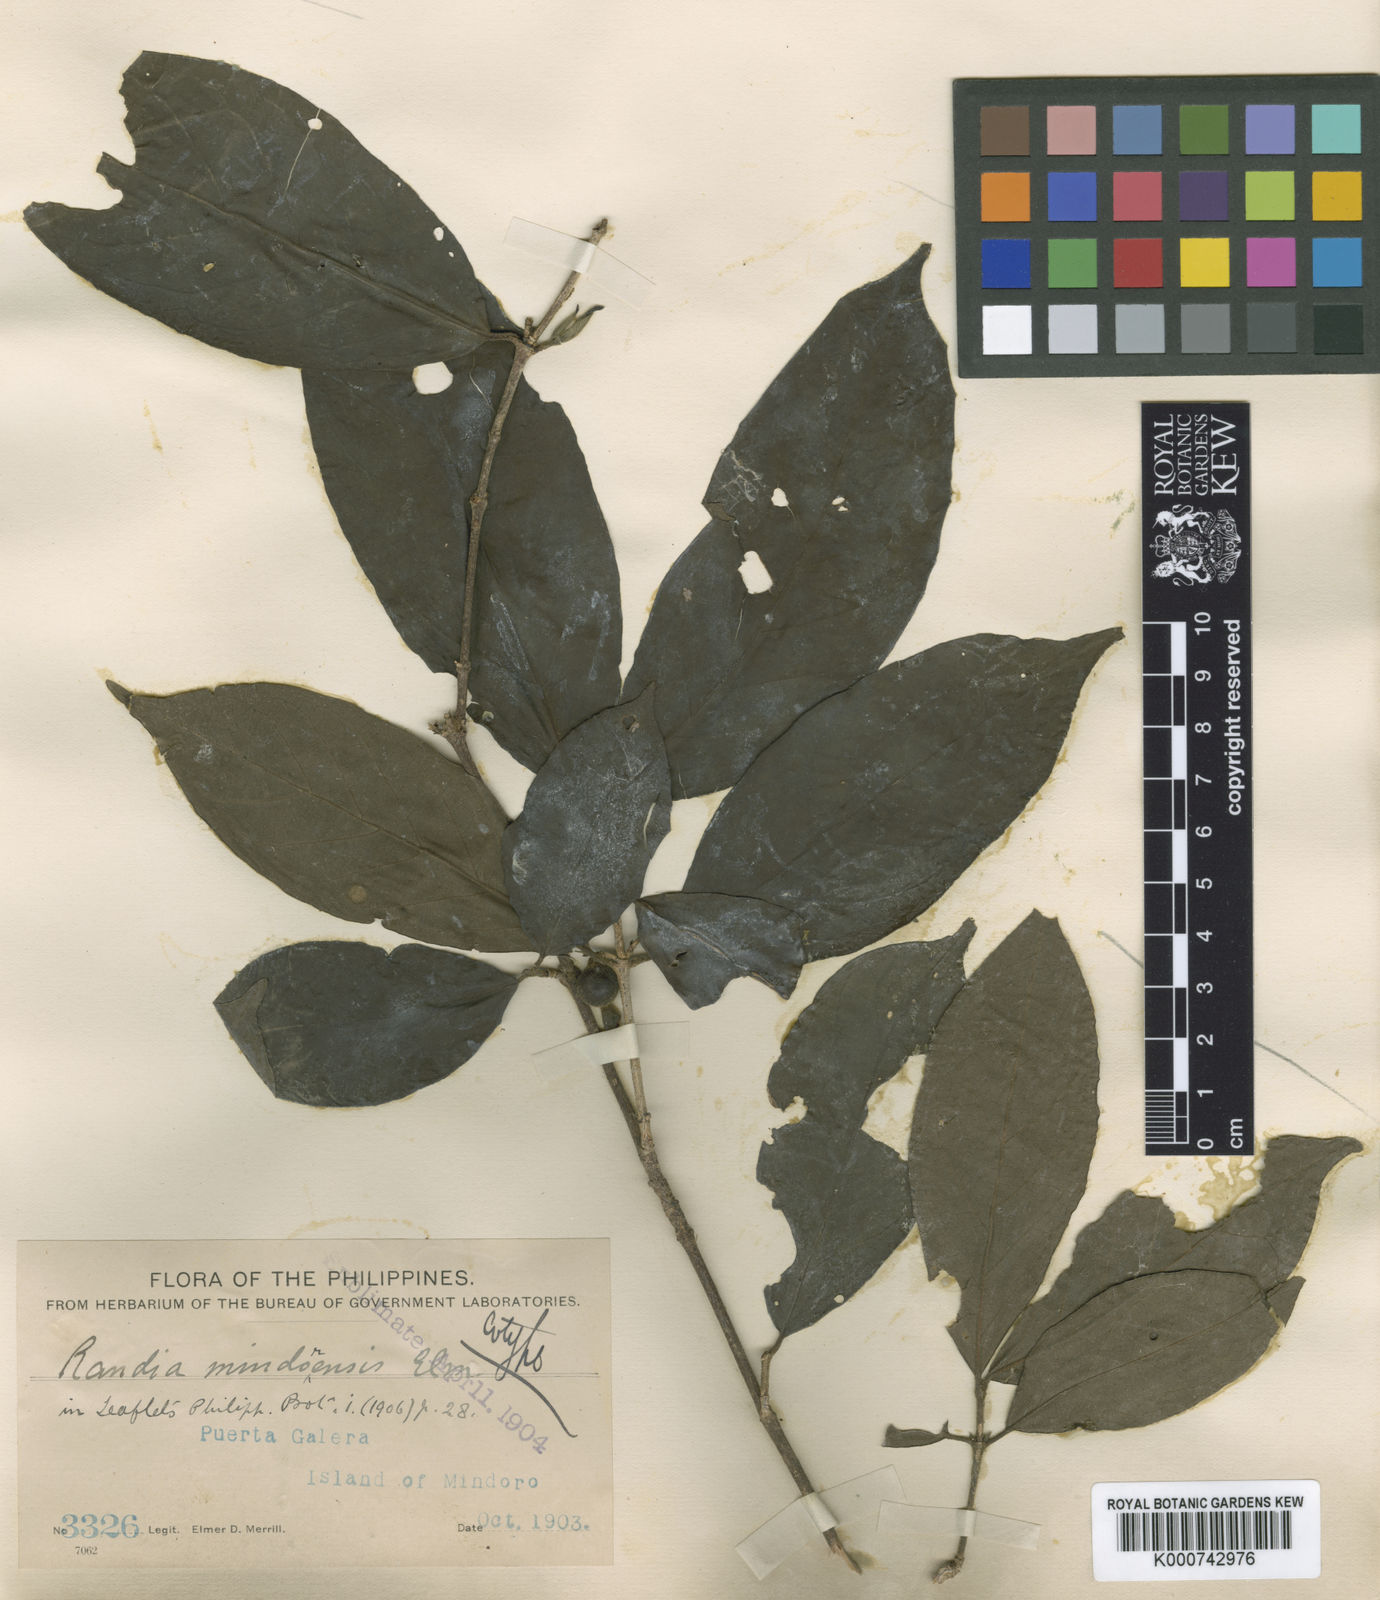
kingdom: Plantae
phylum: Tracheophyta
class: Magnoliopsida
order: Gentianales
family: Rubiaceae
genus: Randia
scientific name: Randia mindoroensis
